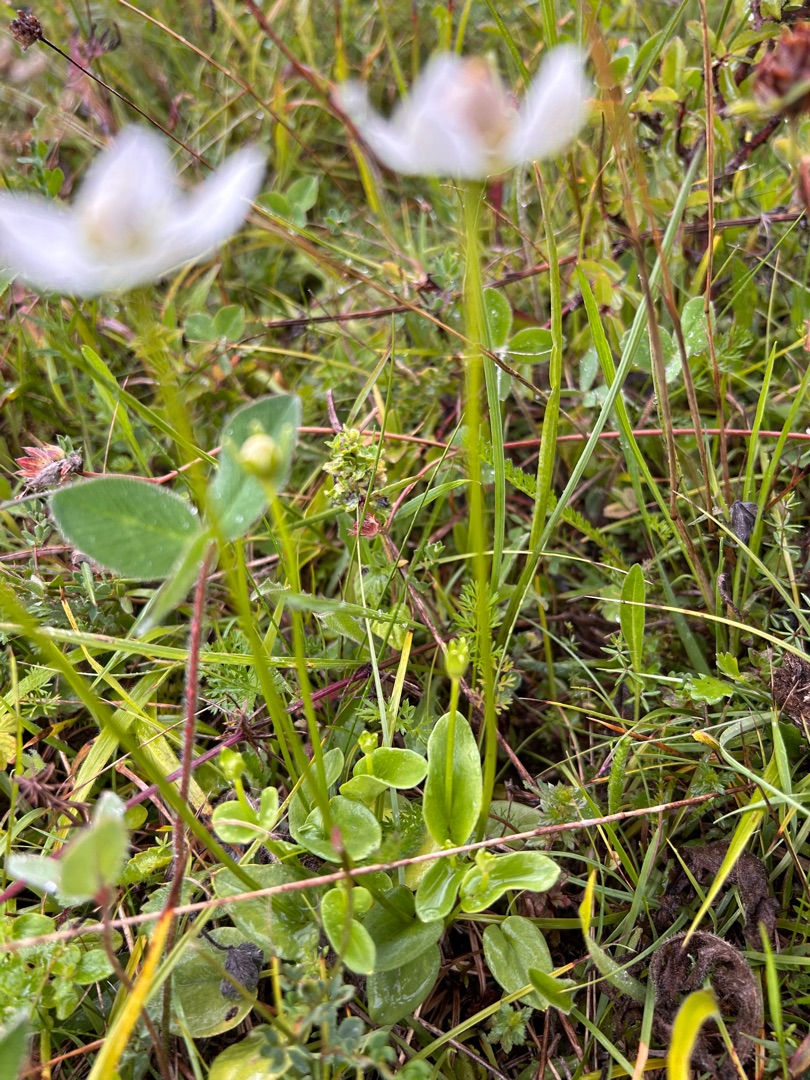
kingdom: Plantae
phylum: Tracheophyta
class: Magnoliopsida
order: Celastrales
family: Parnassiaceae
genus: Parnassia
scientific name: Parnassia palustris
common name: Leverurt
